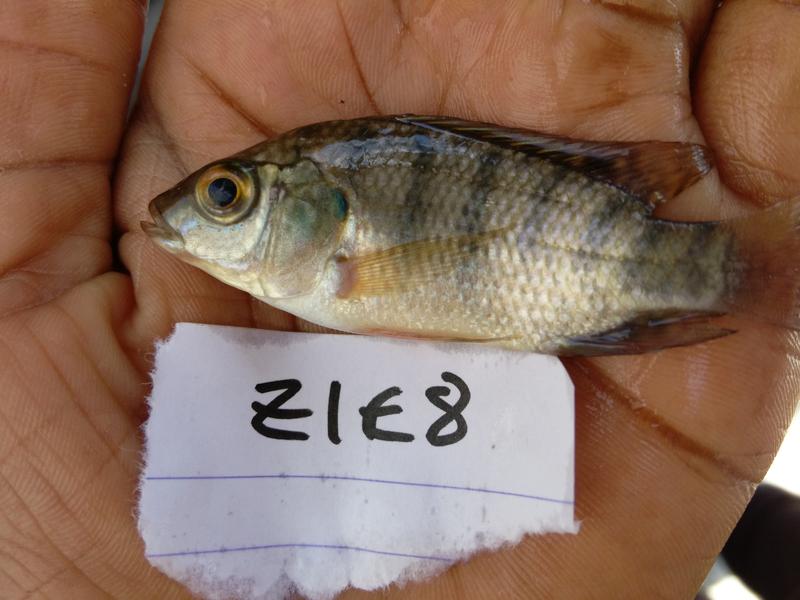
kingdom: Animalia
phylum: Chordata
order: Perciformes
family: Cichlidae
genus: Oreochromis
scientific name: Oreochromis urolepis
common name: Wami tilapia
